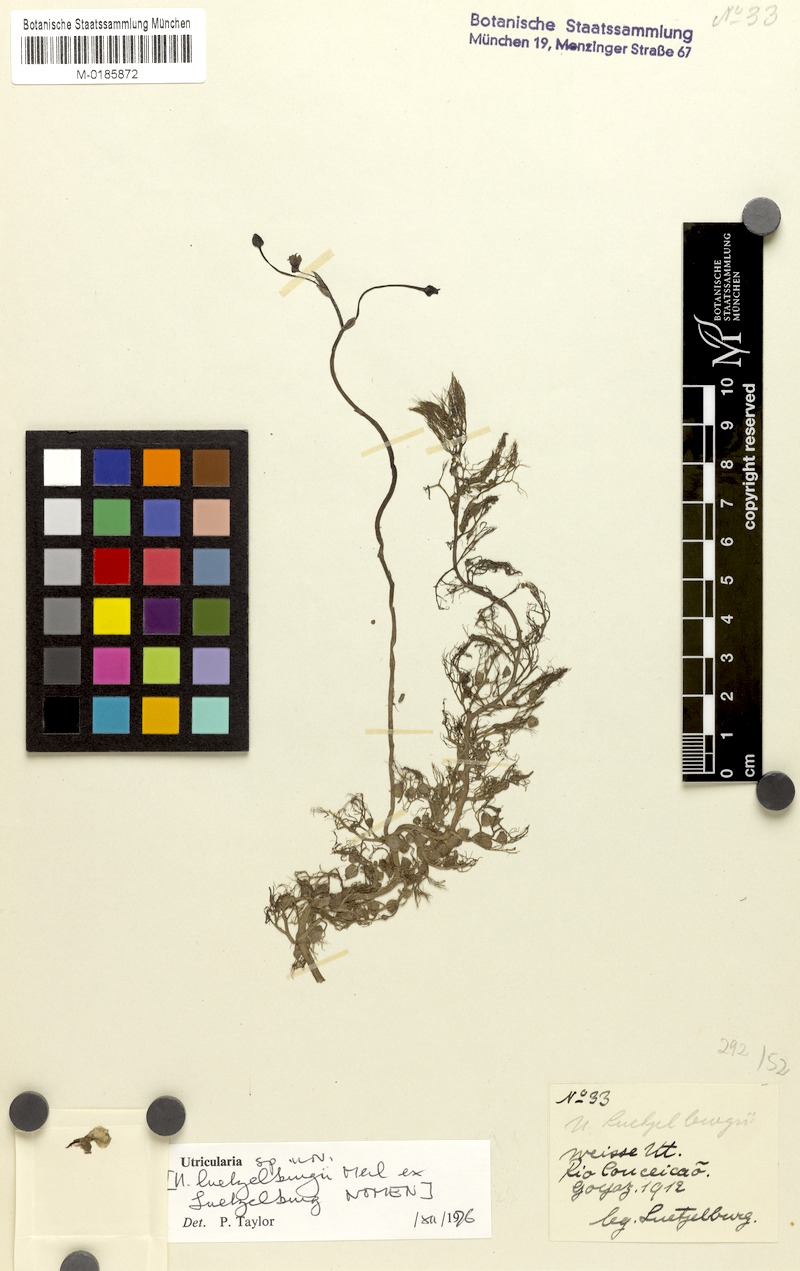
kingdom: Plantae
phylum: Tracheophyta
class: Magnoliopsida
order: Lamiales
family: Lentibulariaceae
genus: Utricularia
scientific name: Utricularia poconensis
